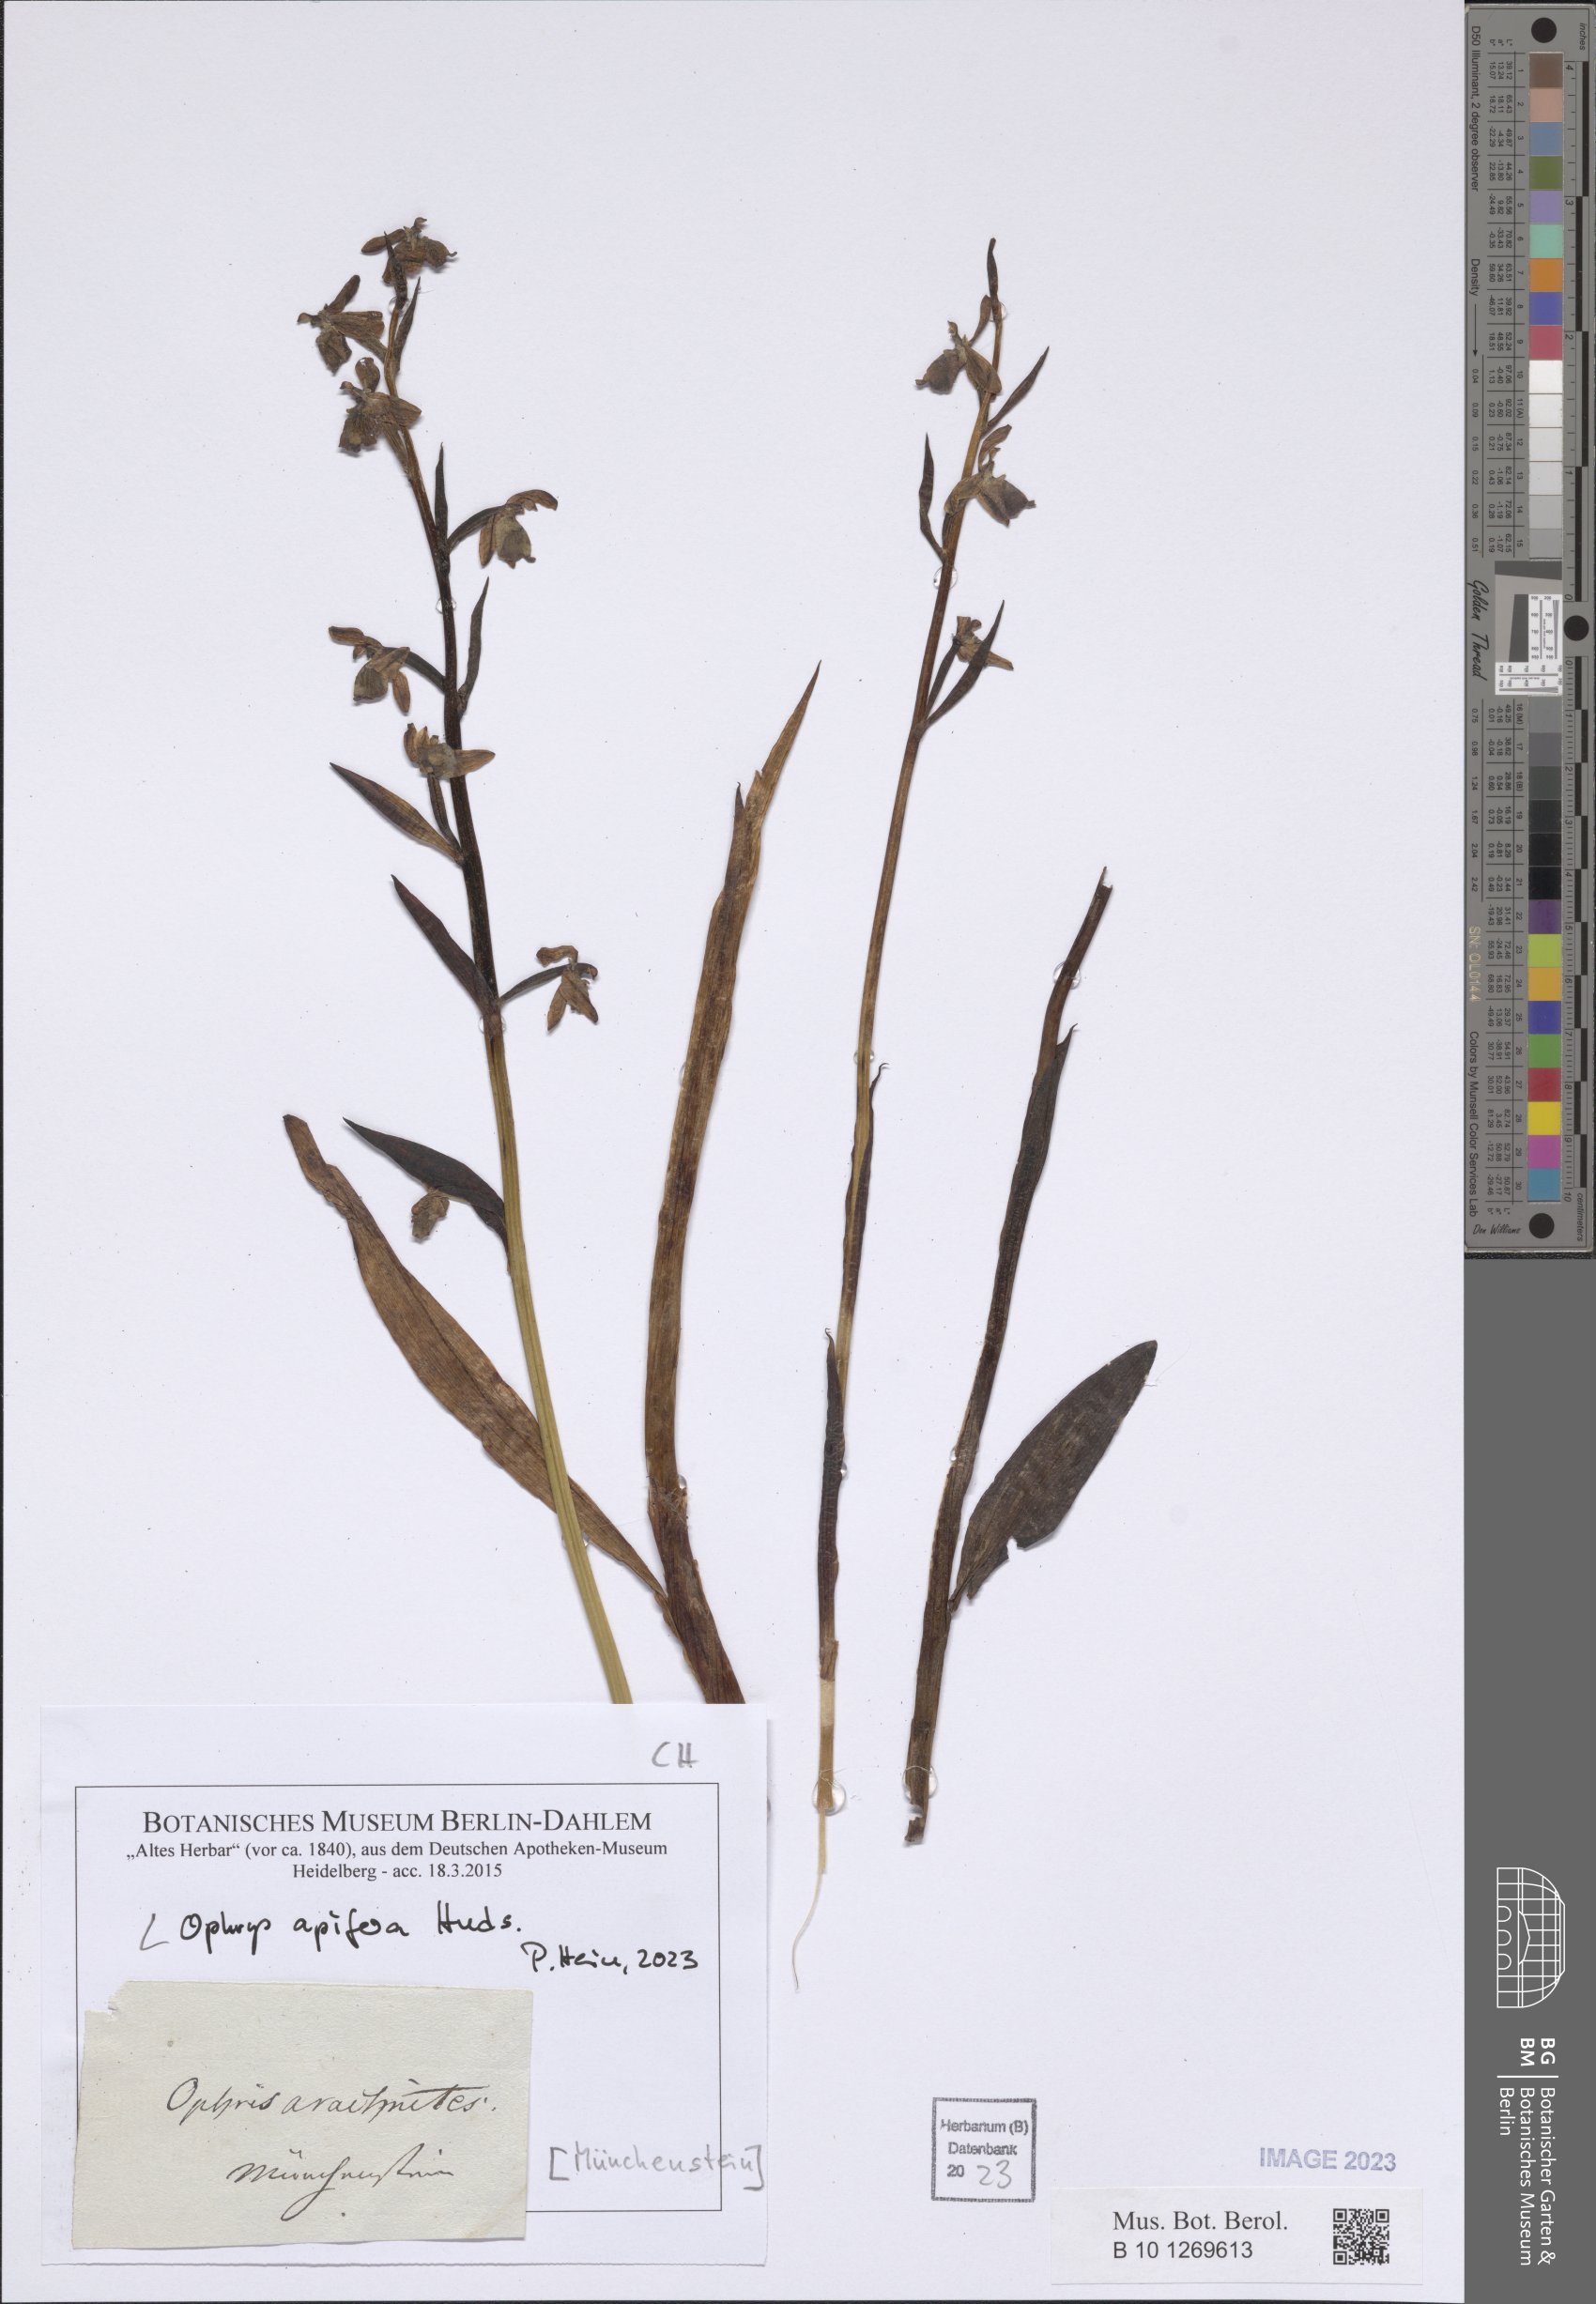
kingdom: Plantae
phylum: Tracheophyta
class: Liliopsida
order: Asparagales
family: Orchidaceae
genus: Ophrys
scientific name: Ophrys apifera
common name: Bee orchid
